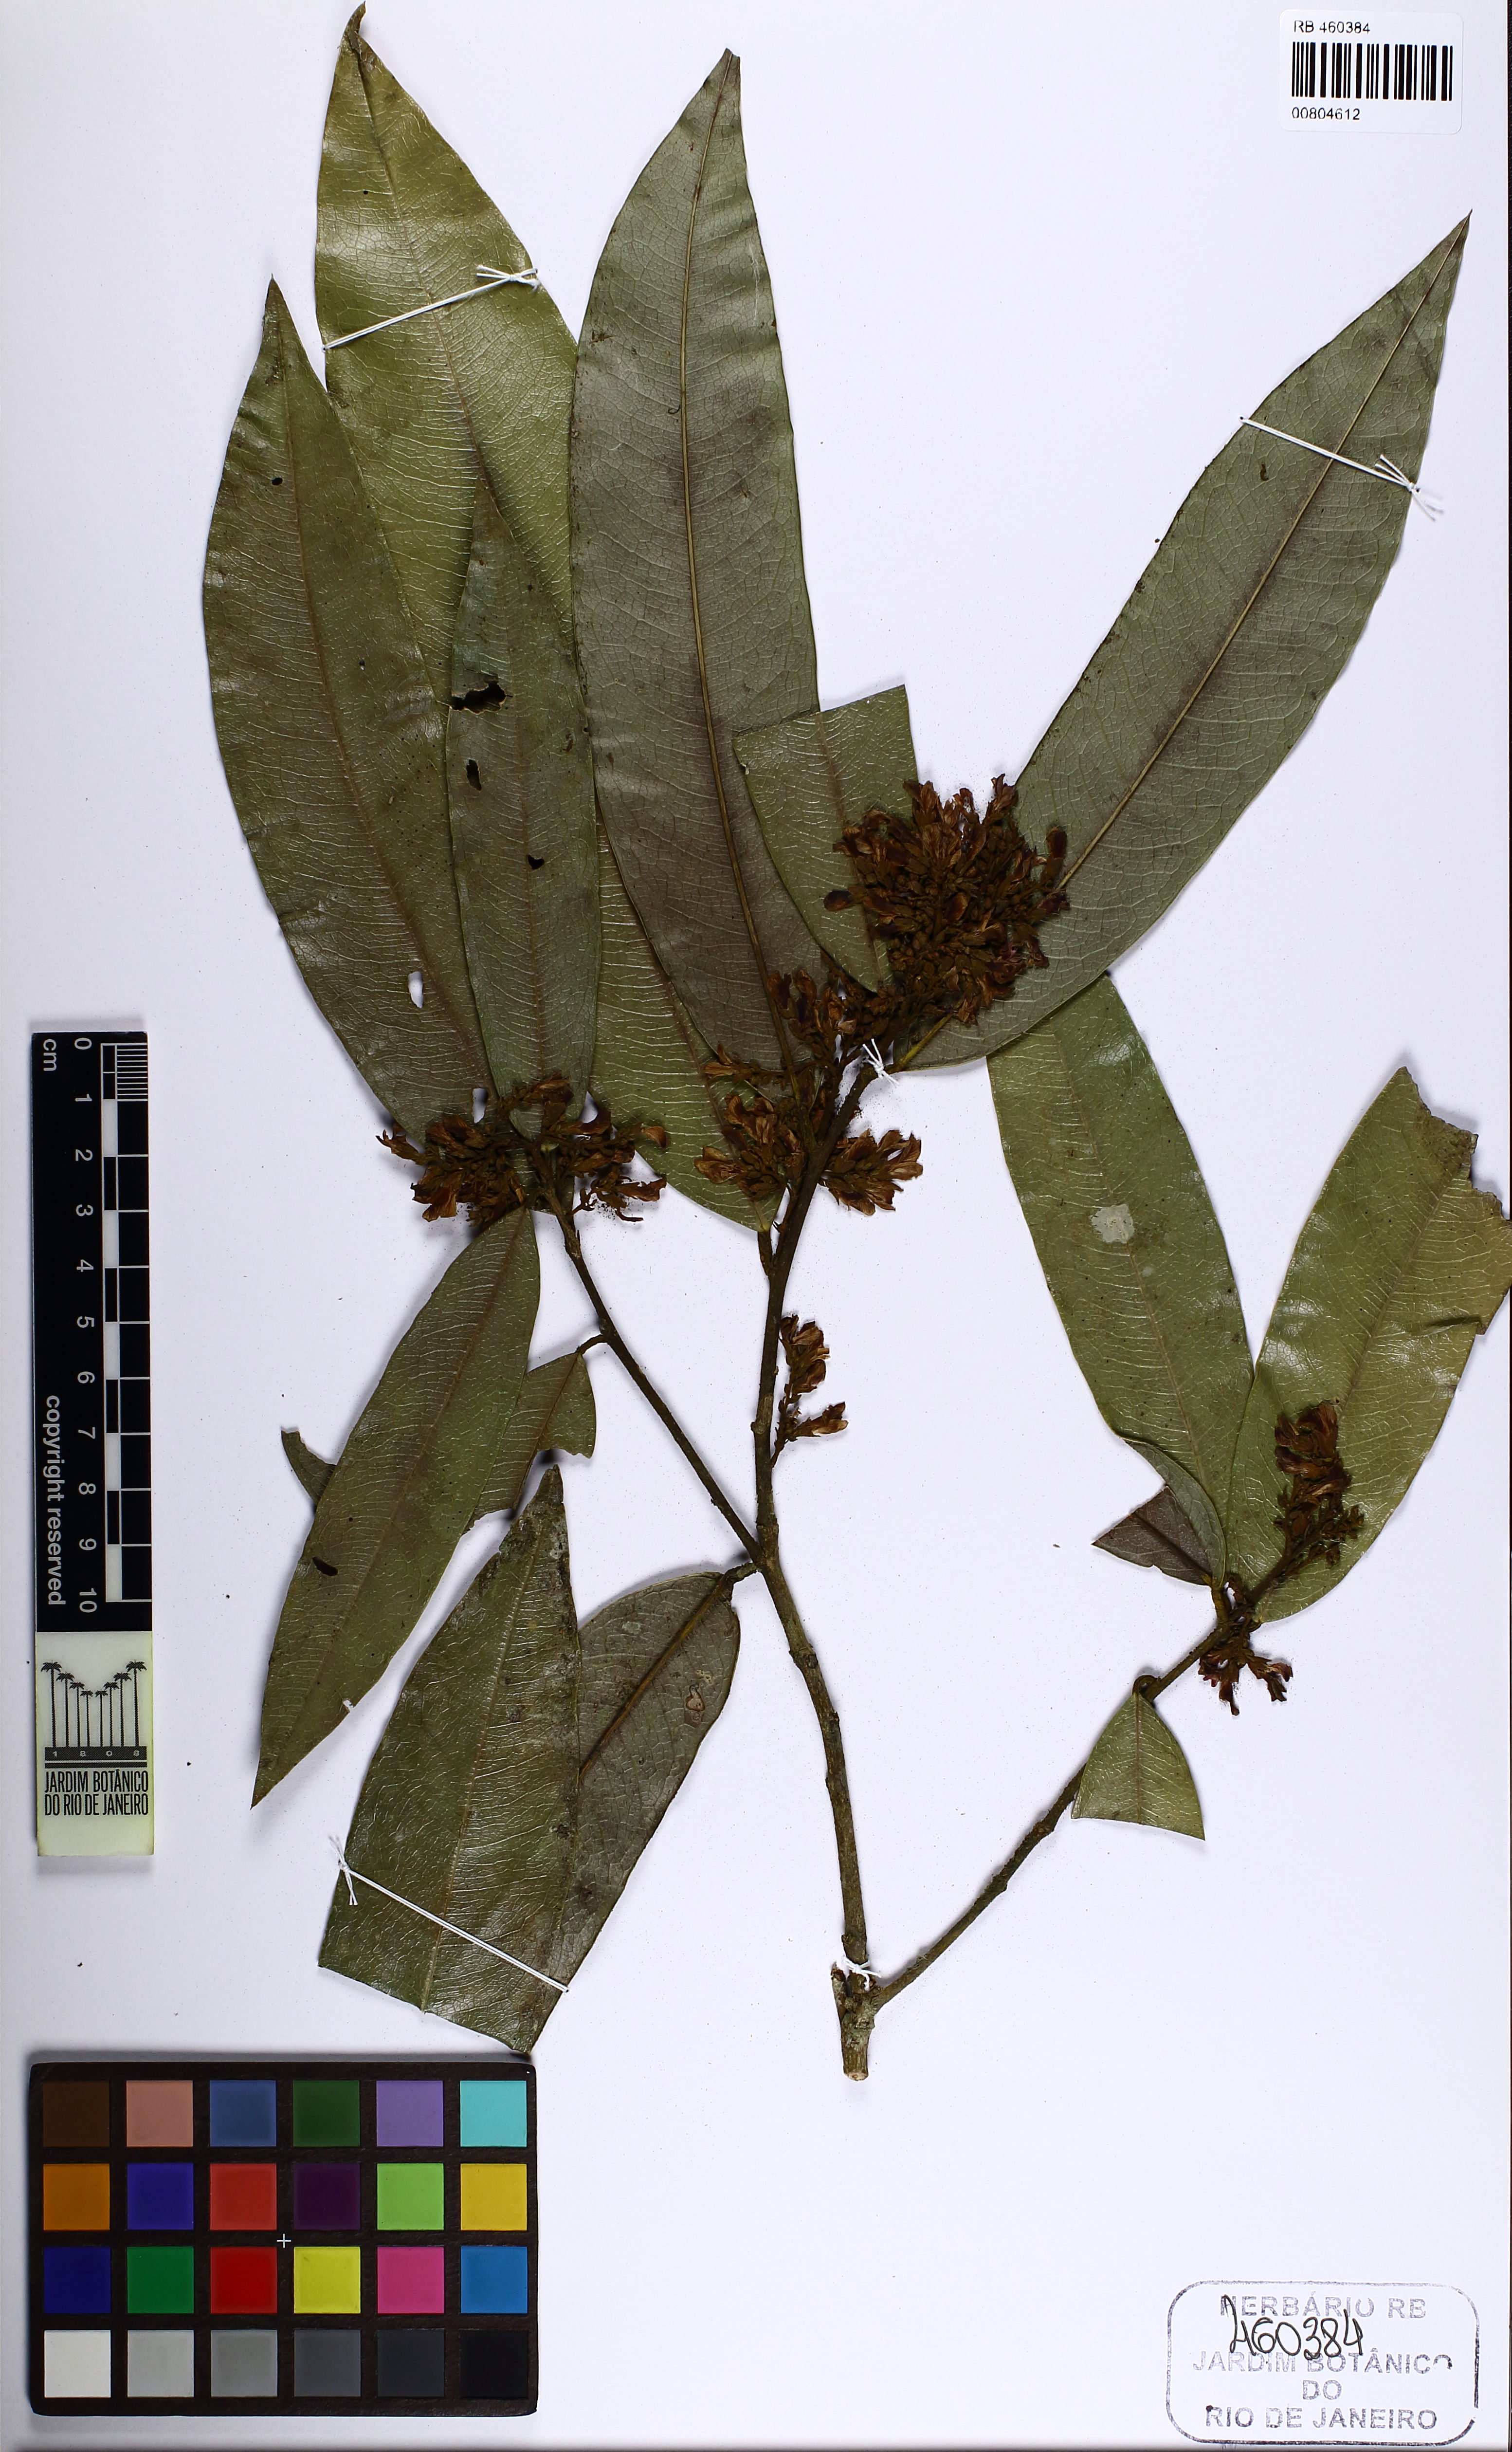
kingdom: Plantae
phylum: Tracheophyta
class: Magnoliopsida
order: Fabales
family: Fabaceae
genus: Poecilanthe
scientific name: Poecilanthe fluminensis
